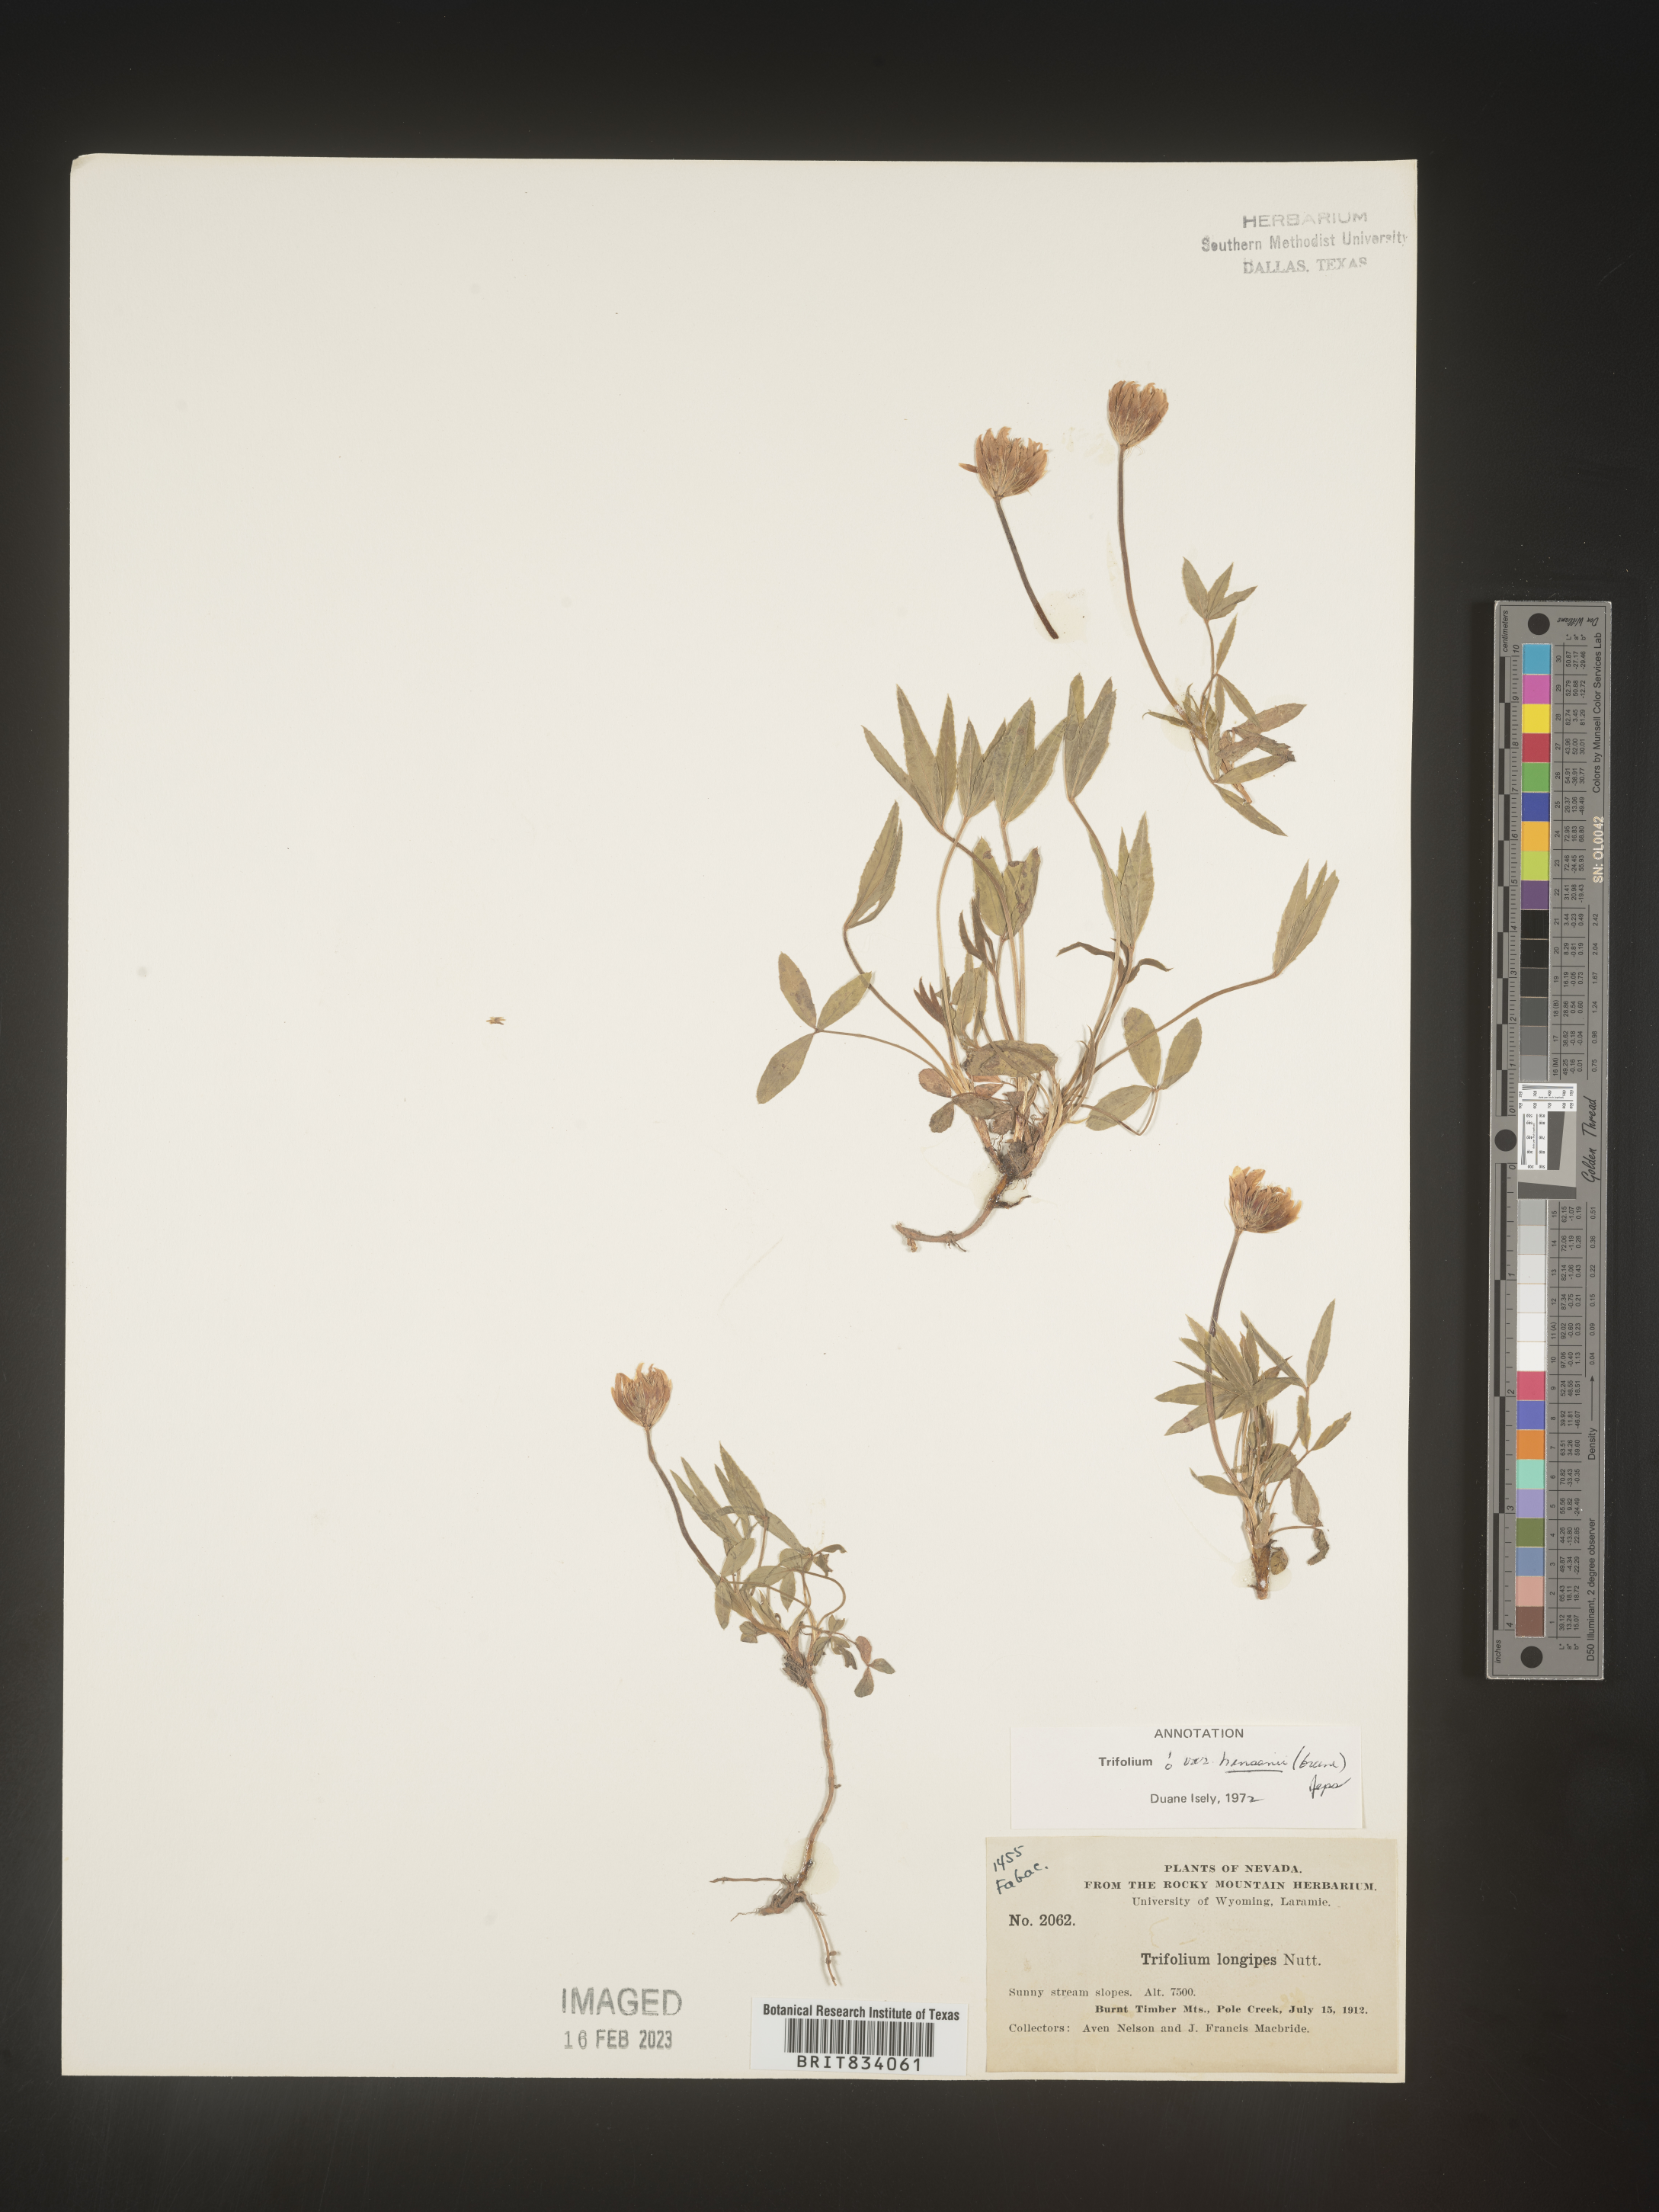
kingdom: Plantae
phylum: Tracheophyta
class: Magnoliopsida
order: Fabales
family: Fabaceae
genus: Trifolium
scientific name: Trifolium
